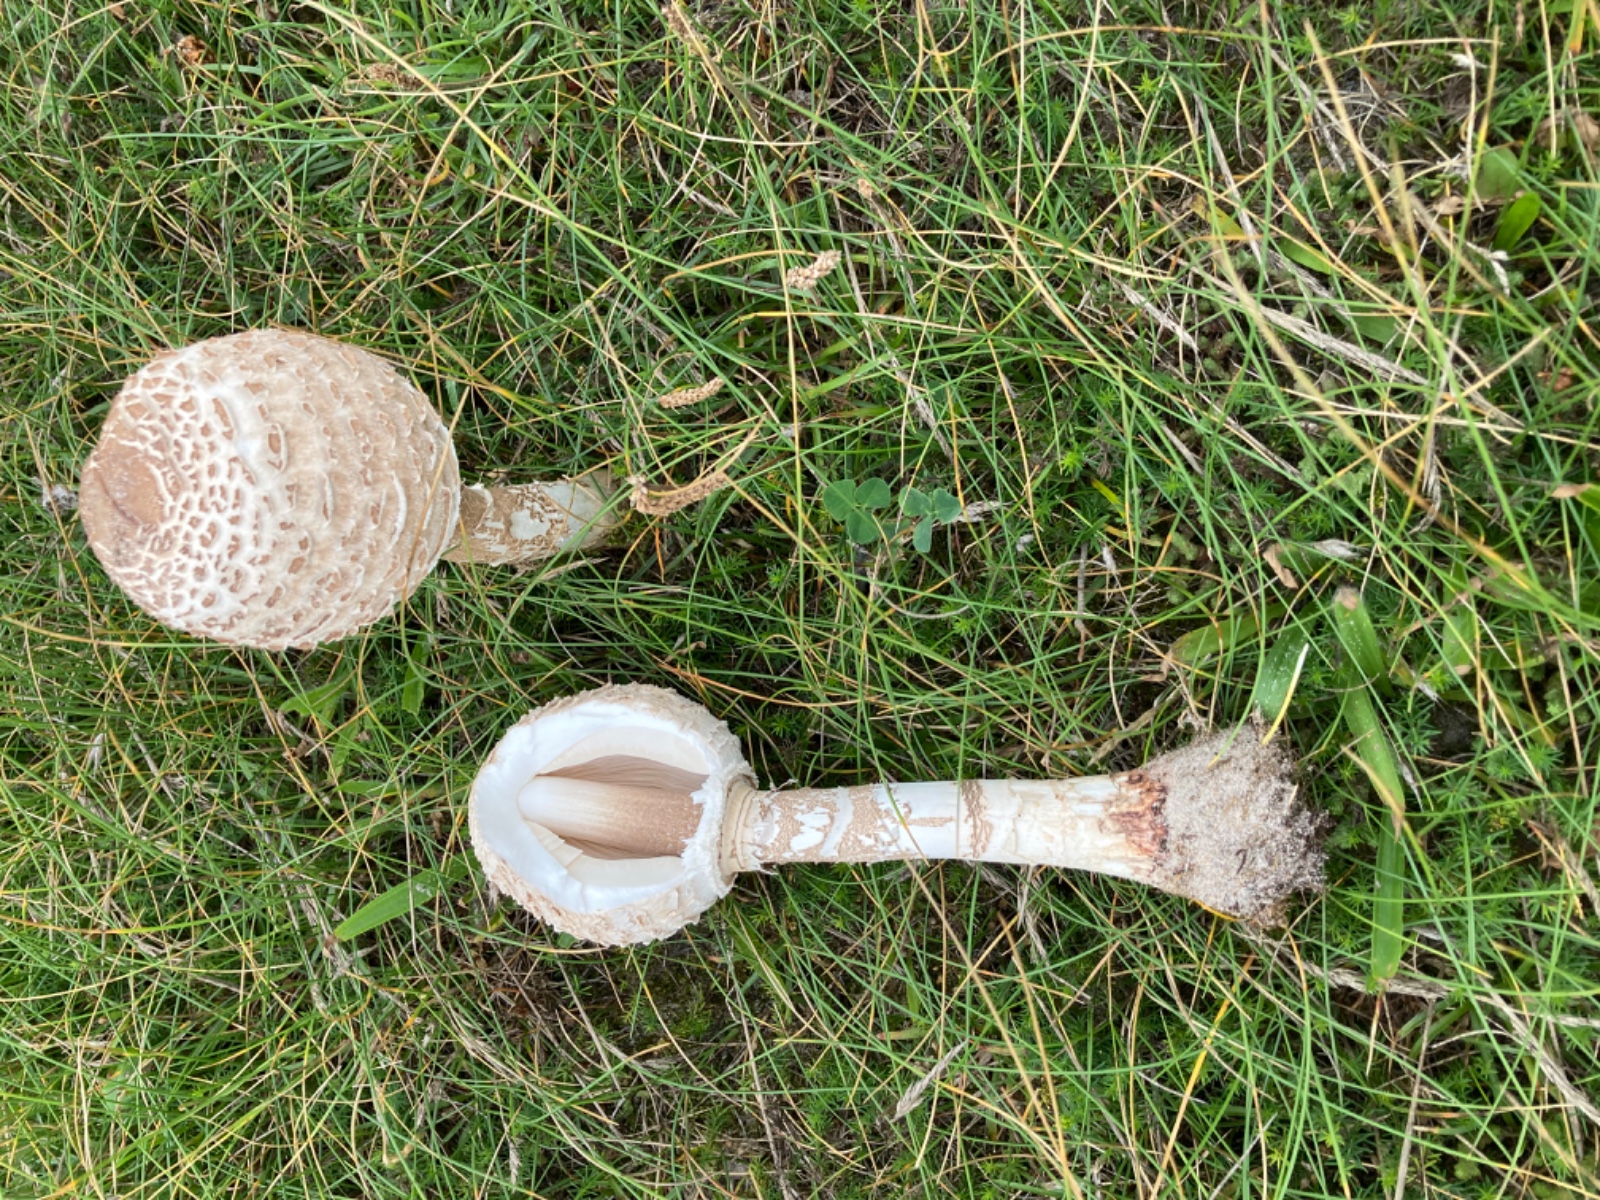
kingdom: Fungi
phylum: Basidiomycota
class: Agaricomycetes
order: Agaricales
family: Agaricaceae
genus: Macrolepiota
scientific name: Macrolepiota procera
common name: stor kæmpeparasolhat
